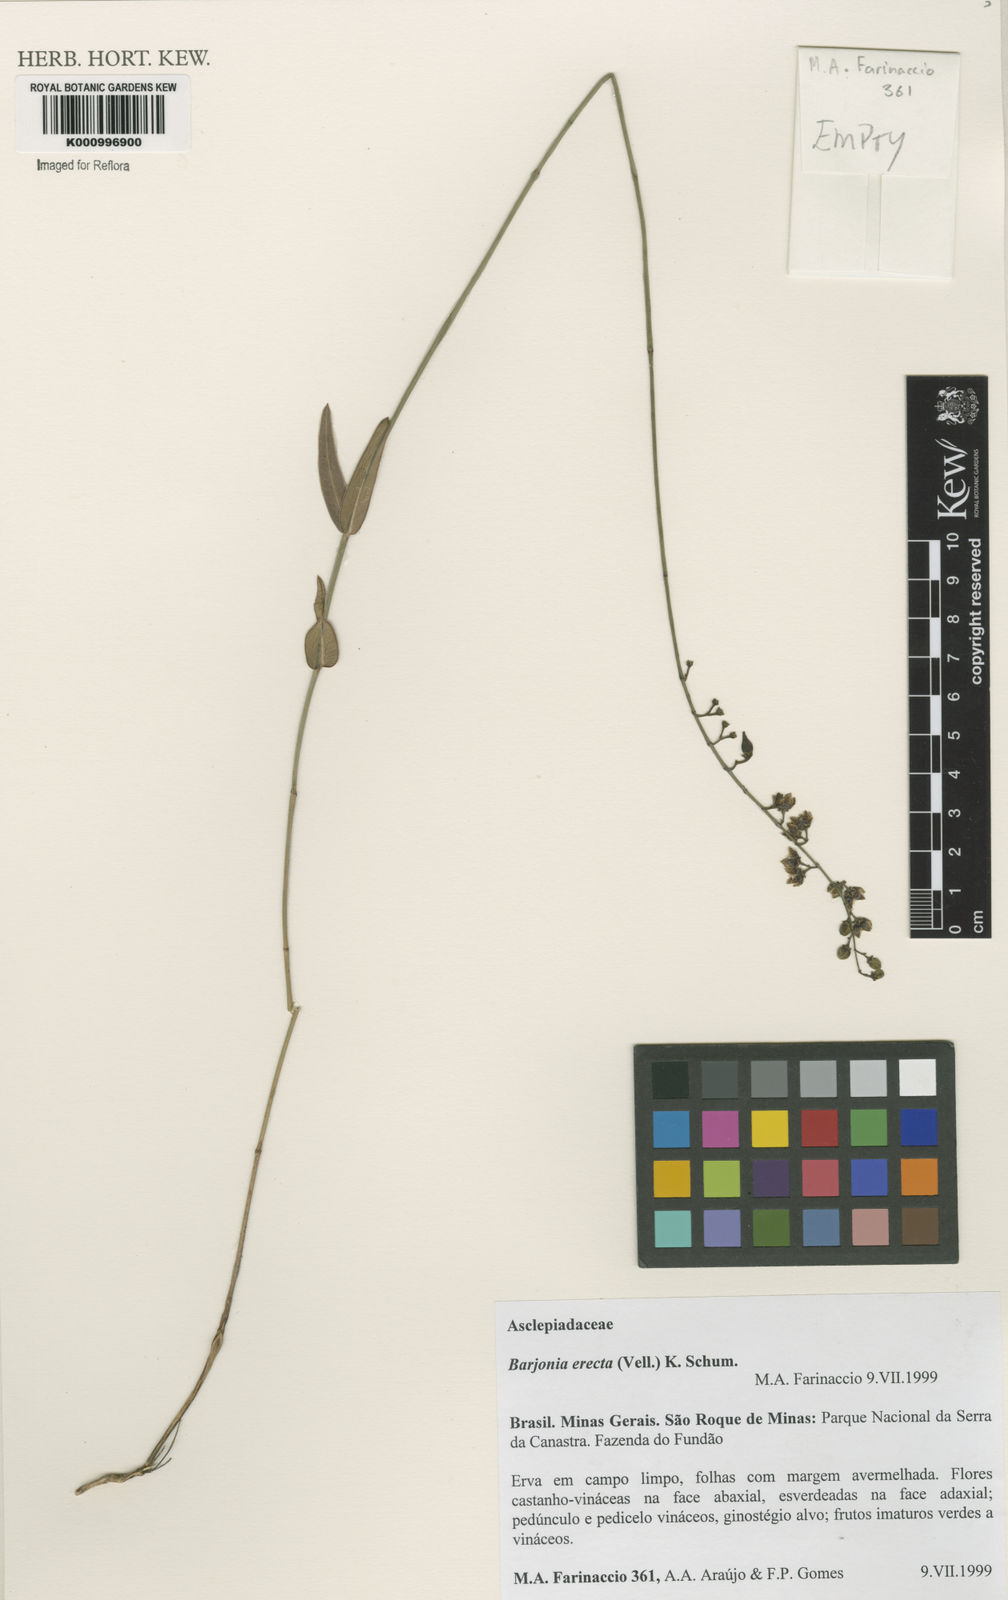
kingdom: Plantae
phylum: Tracheophyta
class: Magnoliopsida
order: Gentianales
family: Apocynaceae
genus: Barjonia
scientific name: Barjonia erecta
